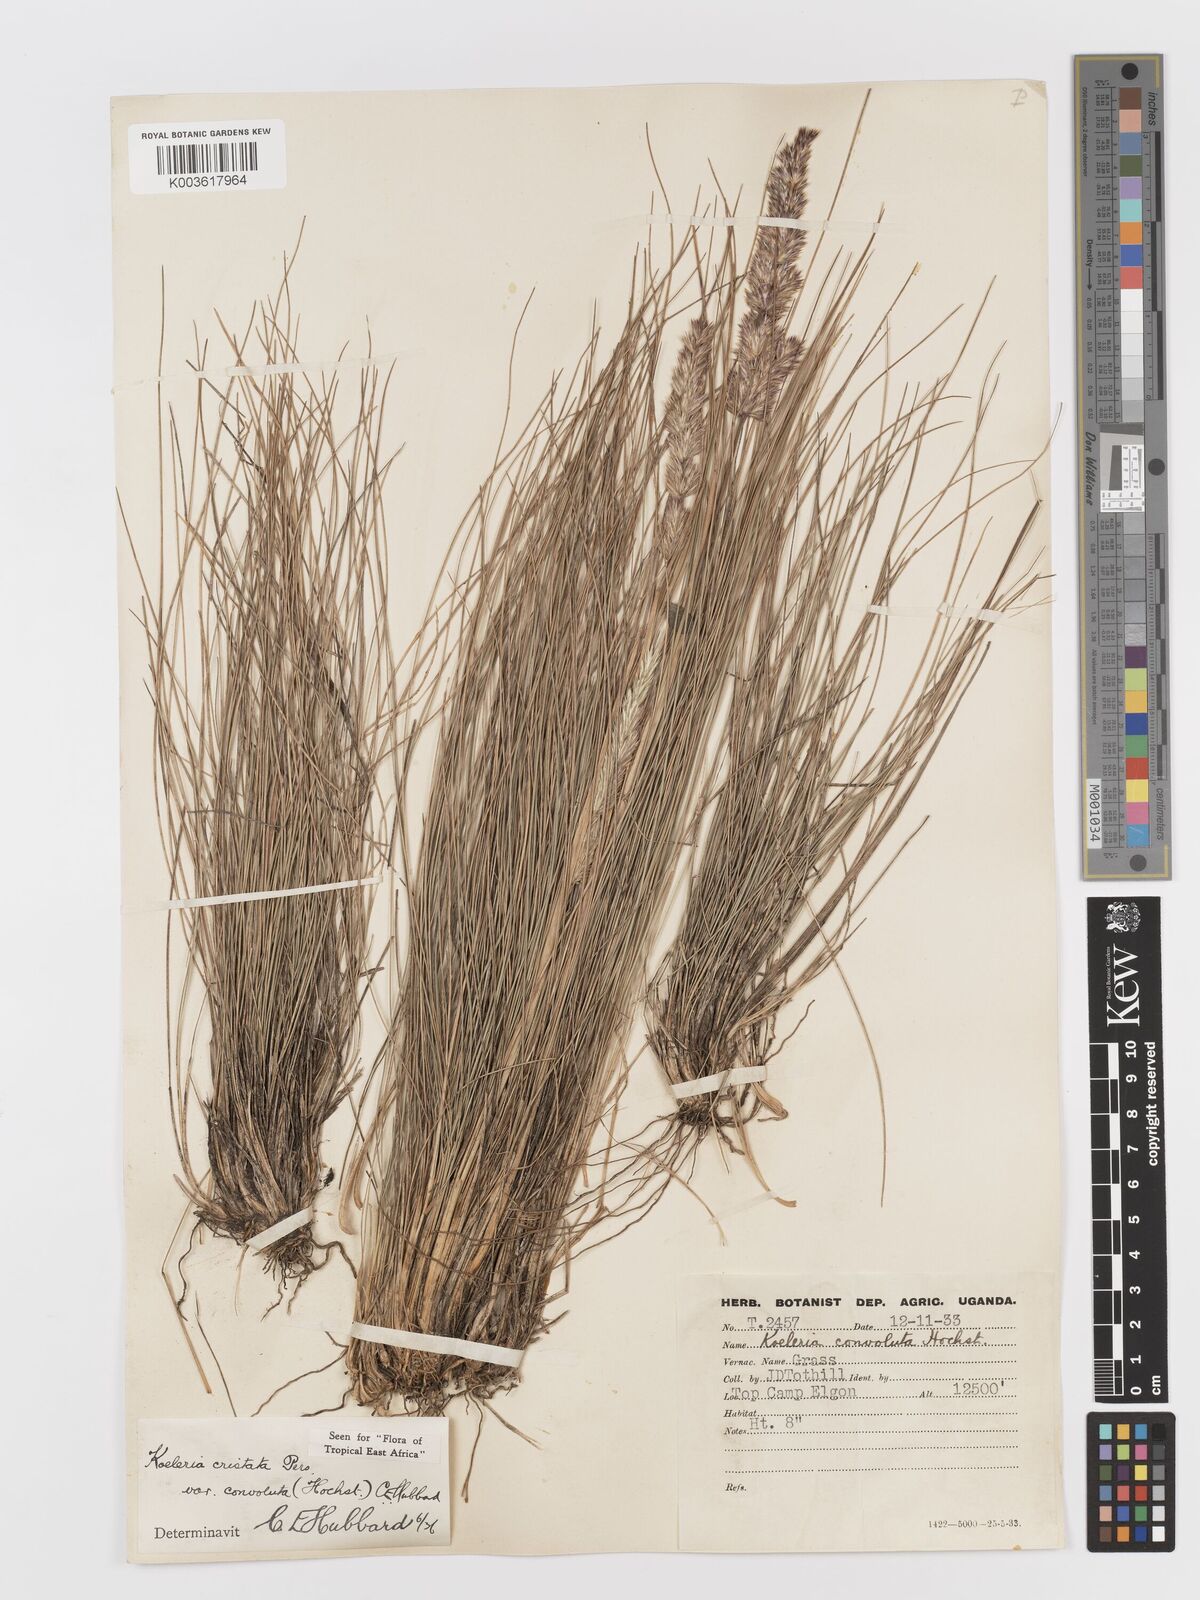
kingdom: Plantae
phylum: Tracheophyta
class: Liliopsida
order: Poales
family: Poaceae
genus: Koeleria
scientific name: Koeleria capensis
